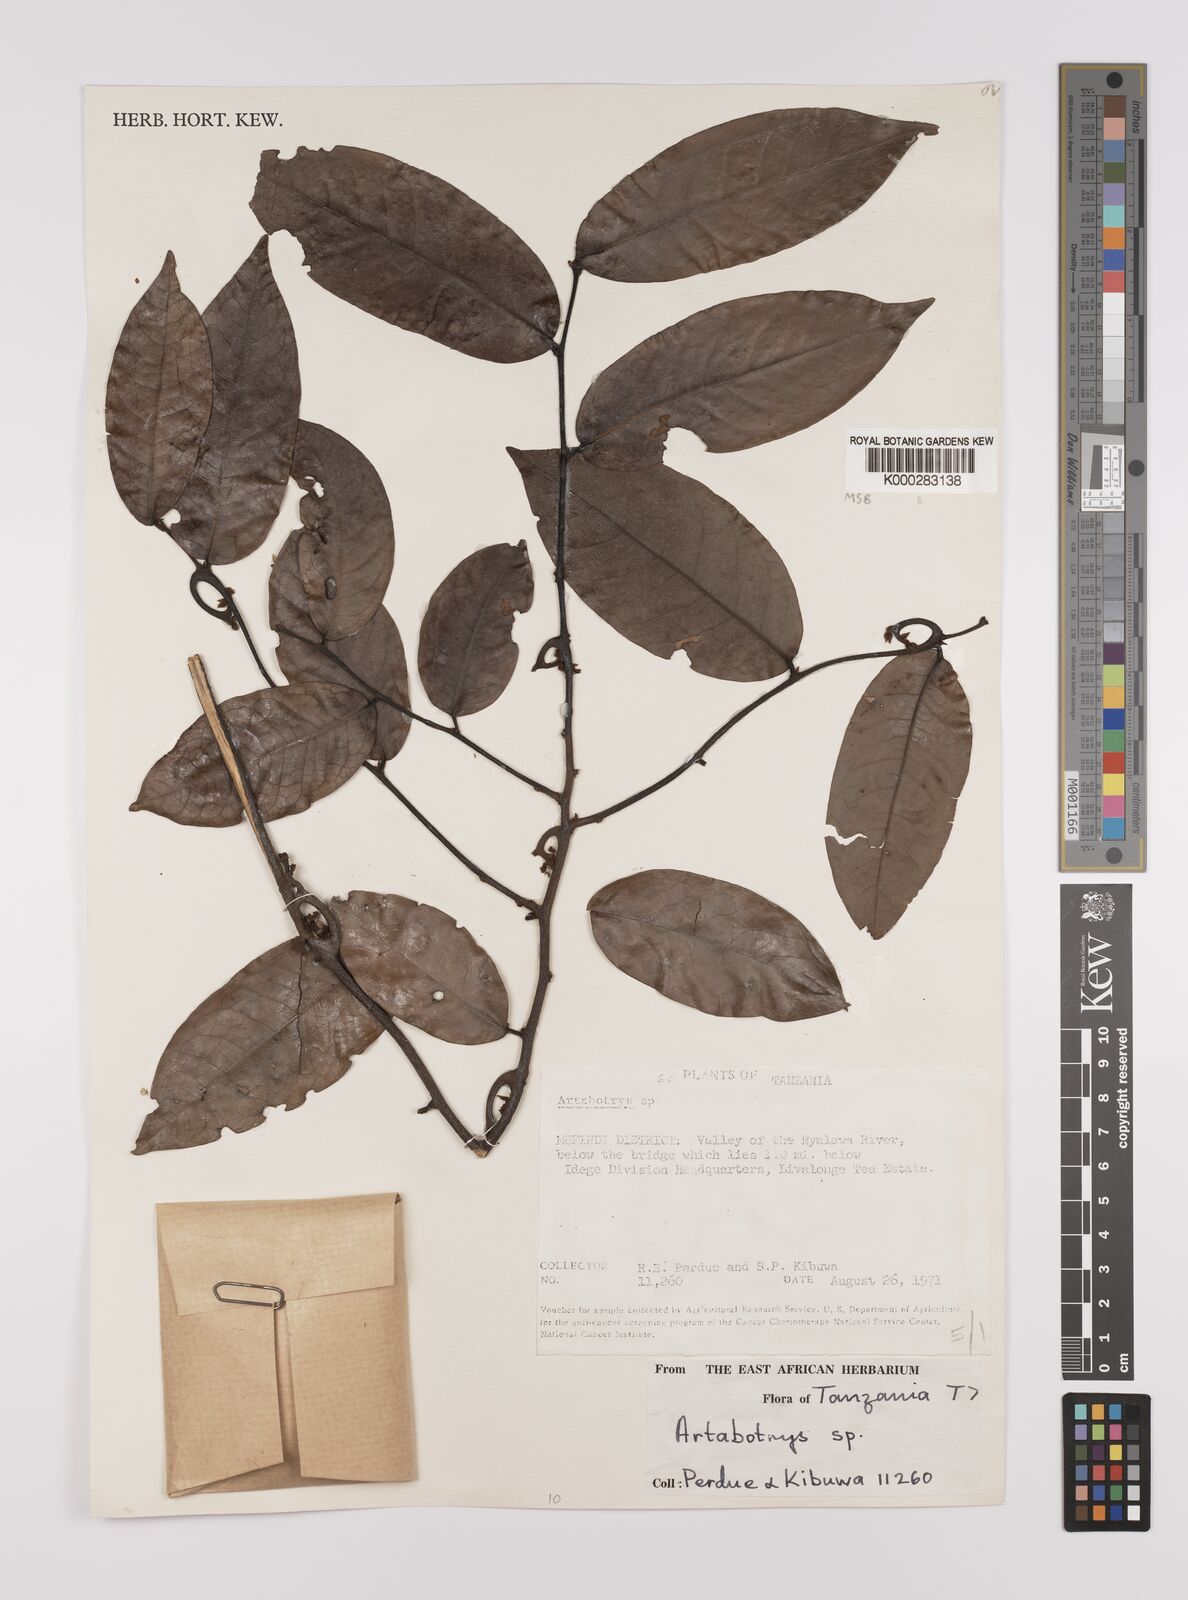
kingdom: Plantae
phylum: Tracheophyta
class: Magnoliopsida
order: Magnoliales
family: Annonaceae
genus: Artabotrys
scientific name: Artabotrys stolzii
